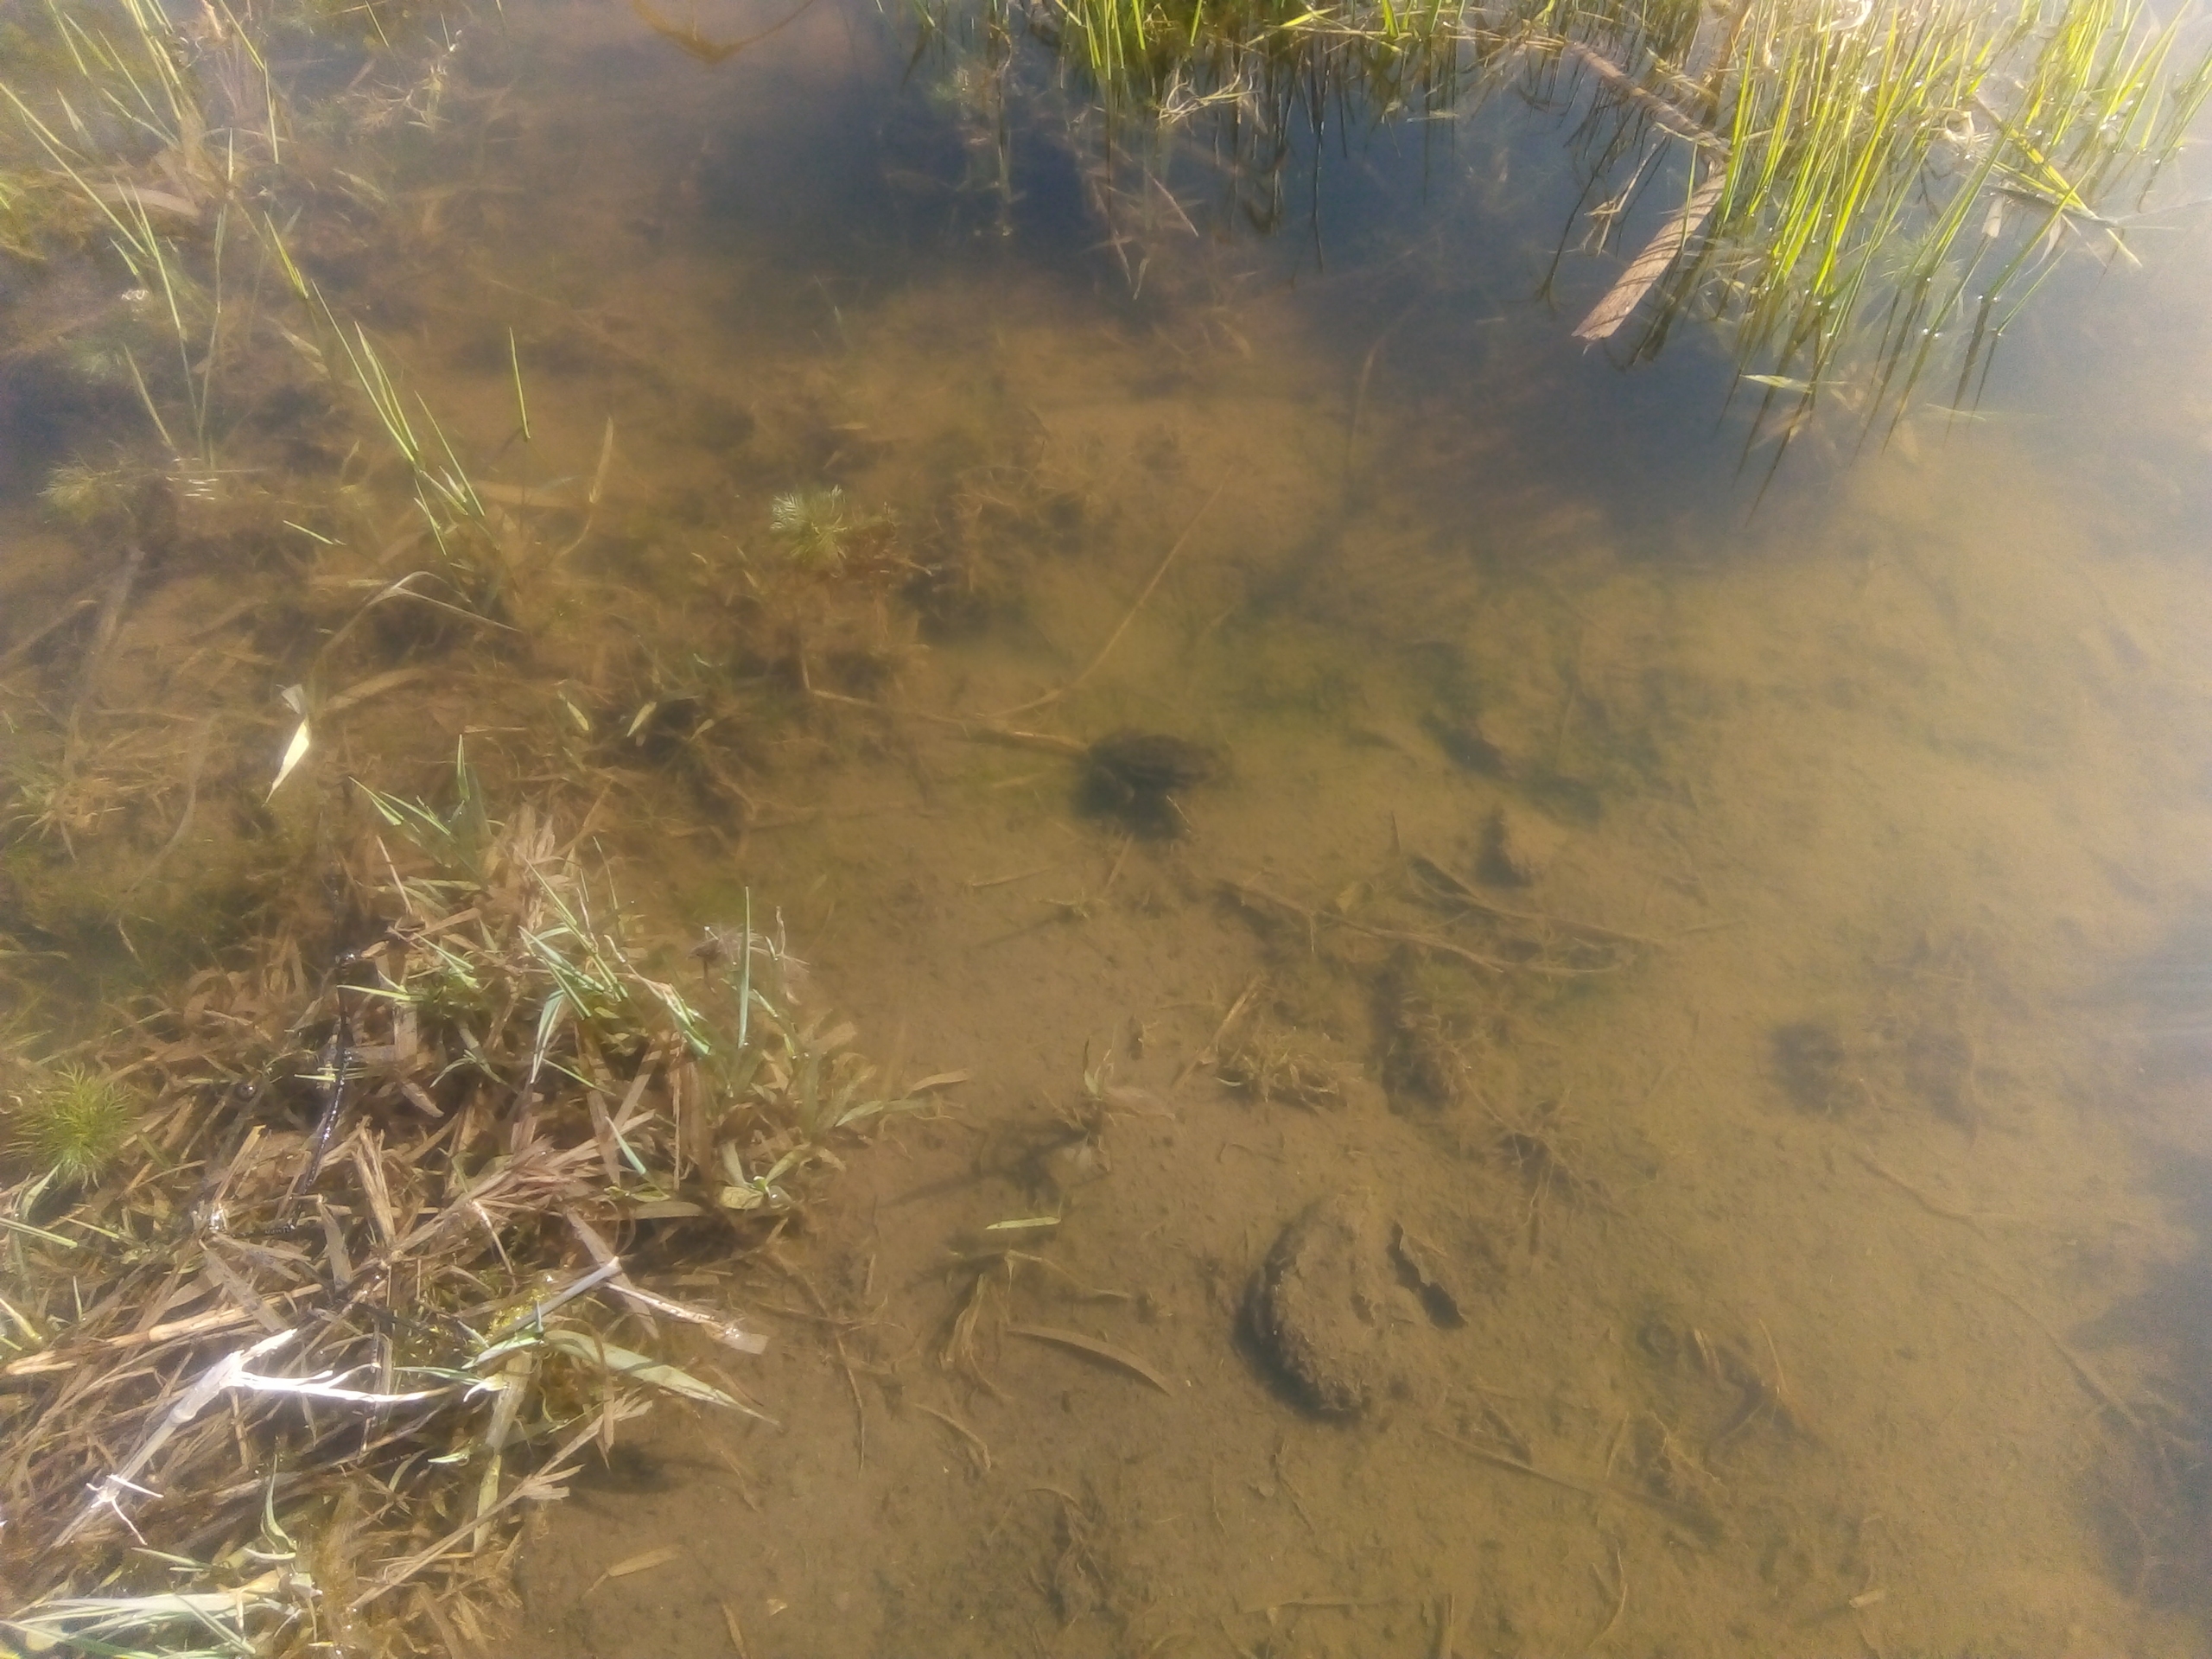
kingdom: Animalia
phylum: Chordata
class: Amphibia
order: Anura
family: Bufonidae
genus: Bufo
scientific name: Bufo bufo
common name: Skrubtudse
